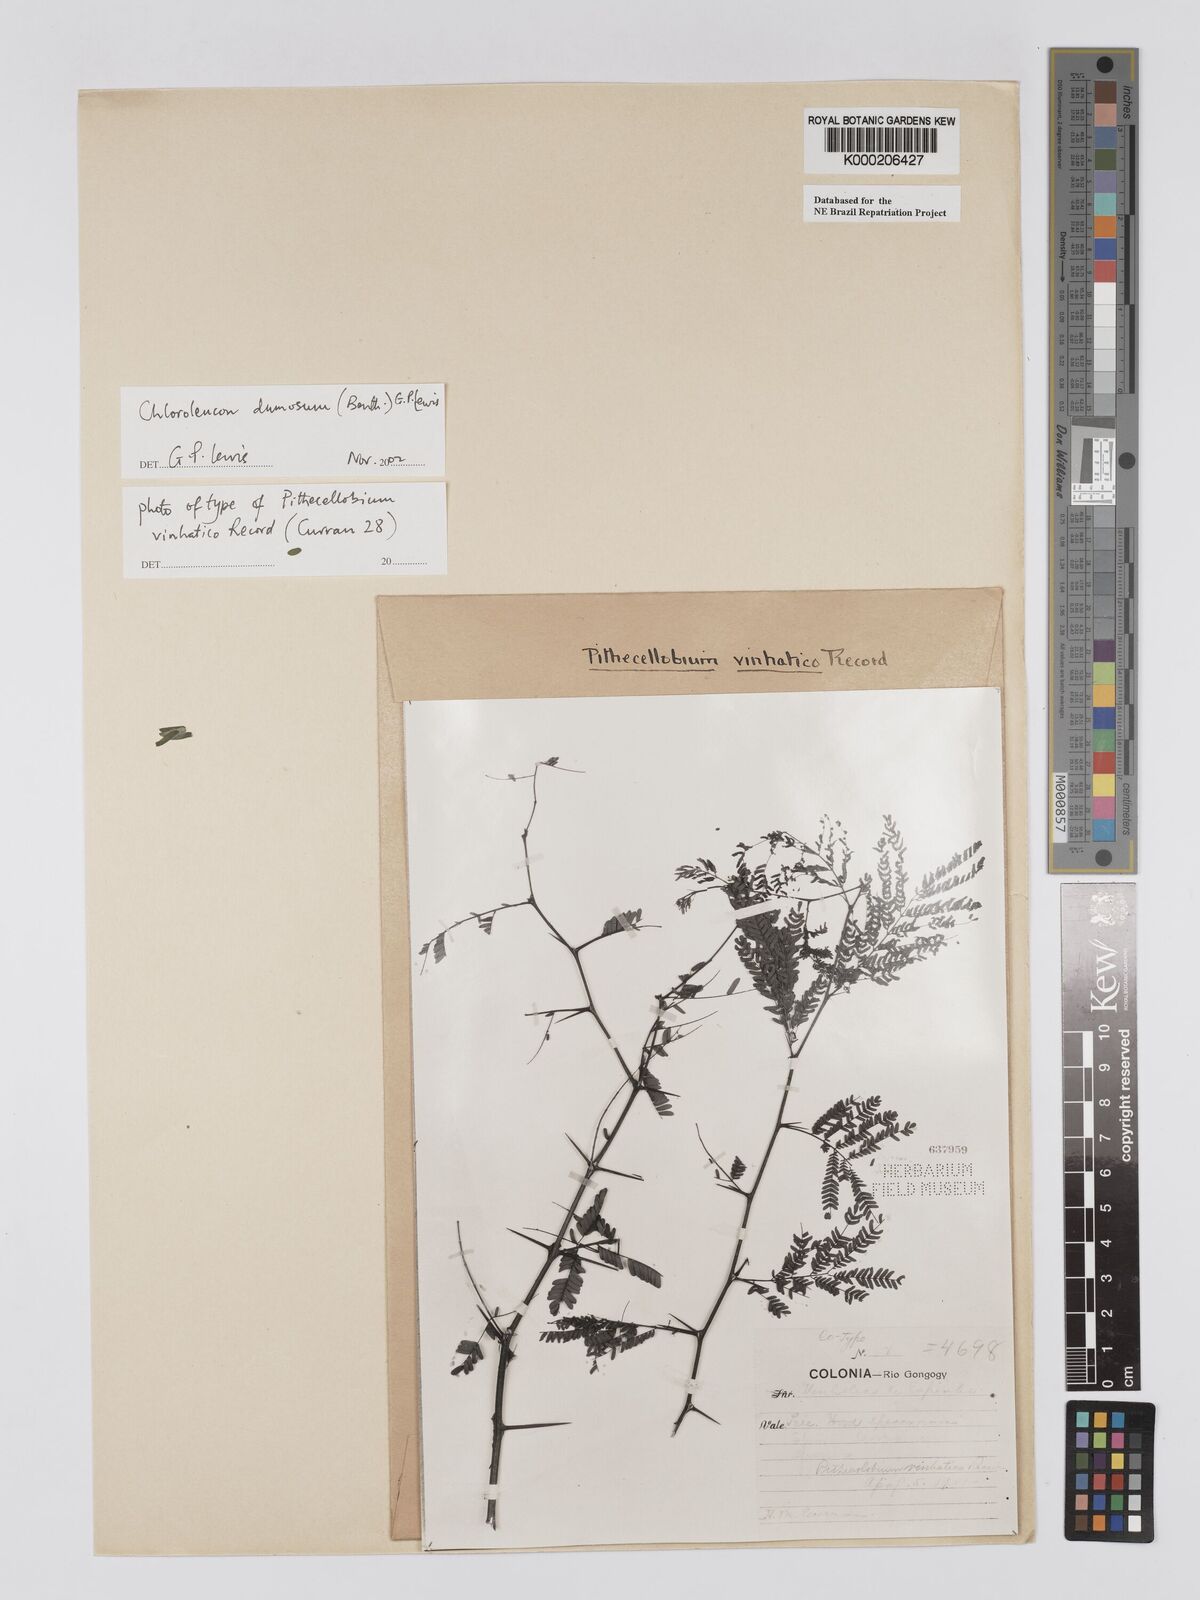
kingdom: Plantae
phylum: Tracheophyta
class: Magnoliopsida
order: Fabales
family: Fabaceae
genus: Chloroleucon
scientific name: Chloroleucon dumosum
